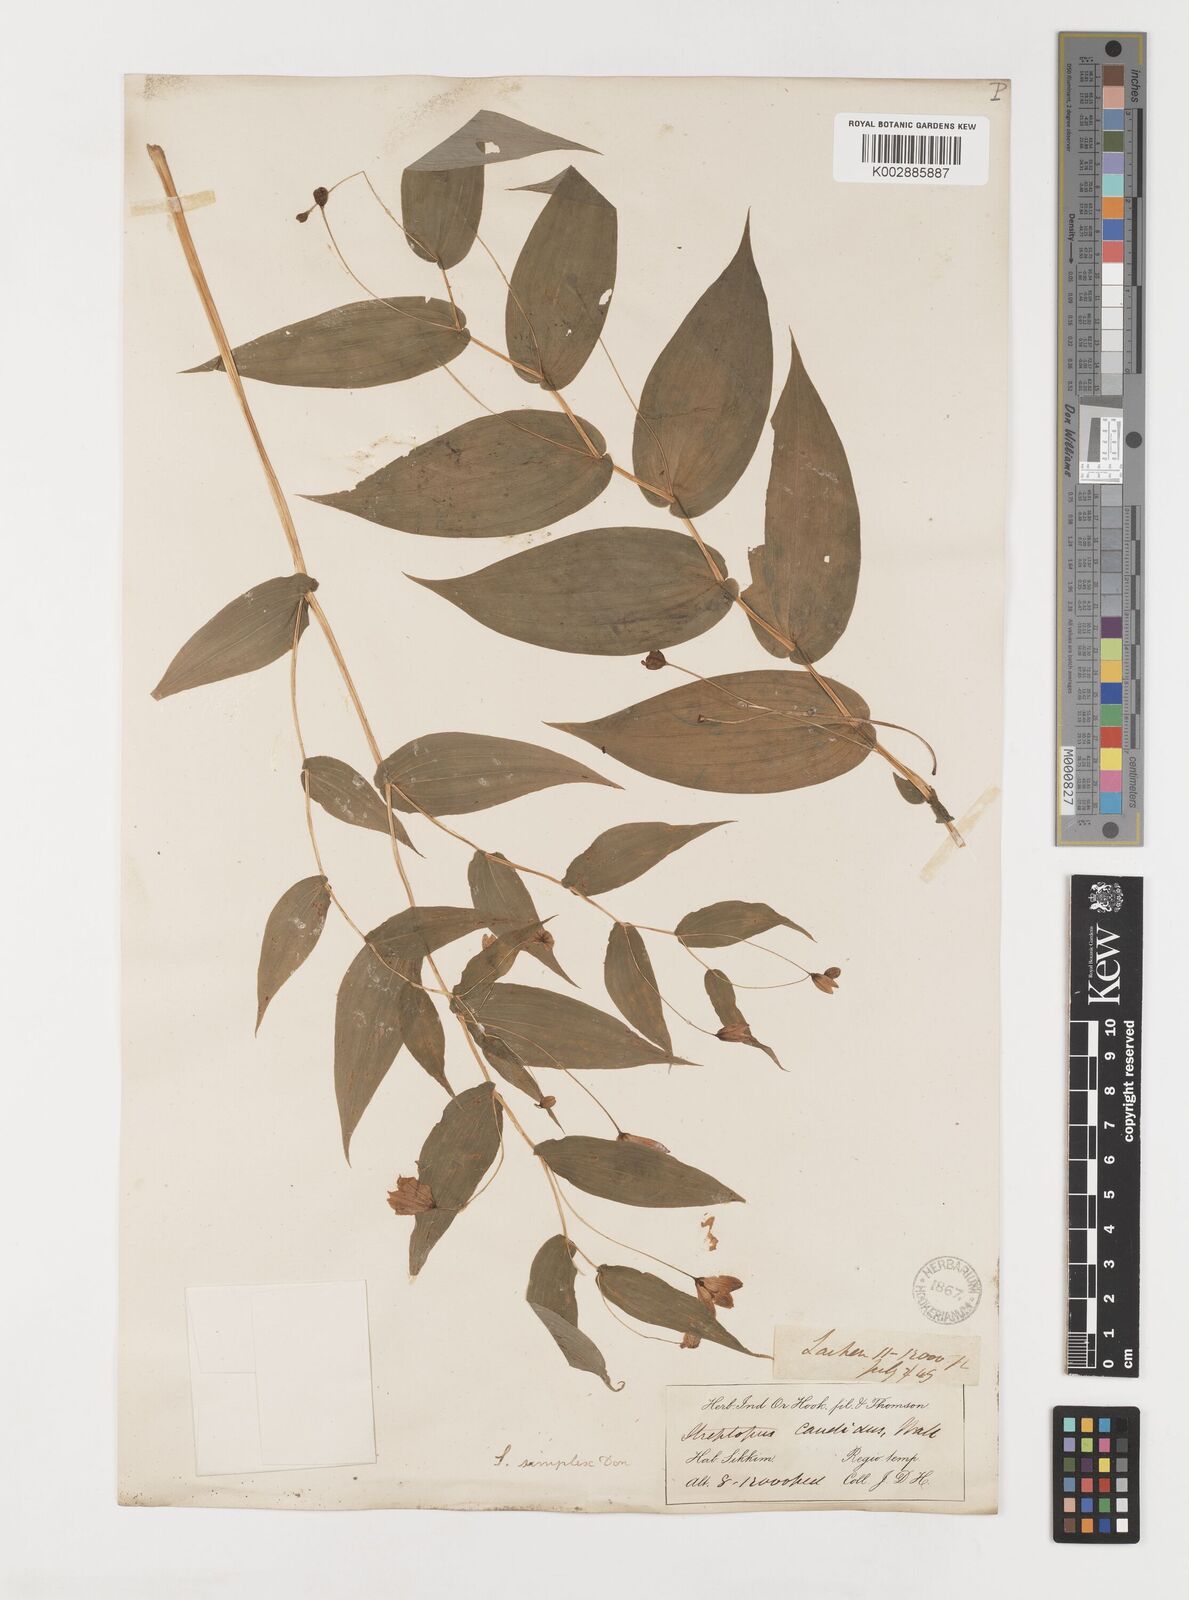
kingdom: Plantae
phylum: Tracheophyta
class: Liliopsida
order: Liliales
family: Liliaceae
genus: Streptopus
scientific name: Streptopus simplex
